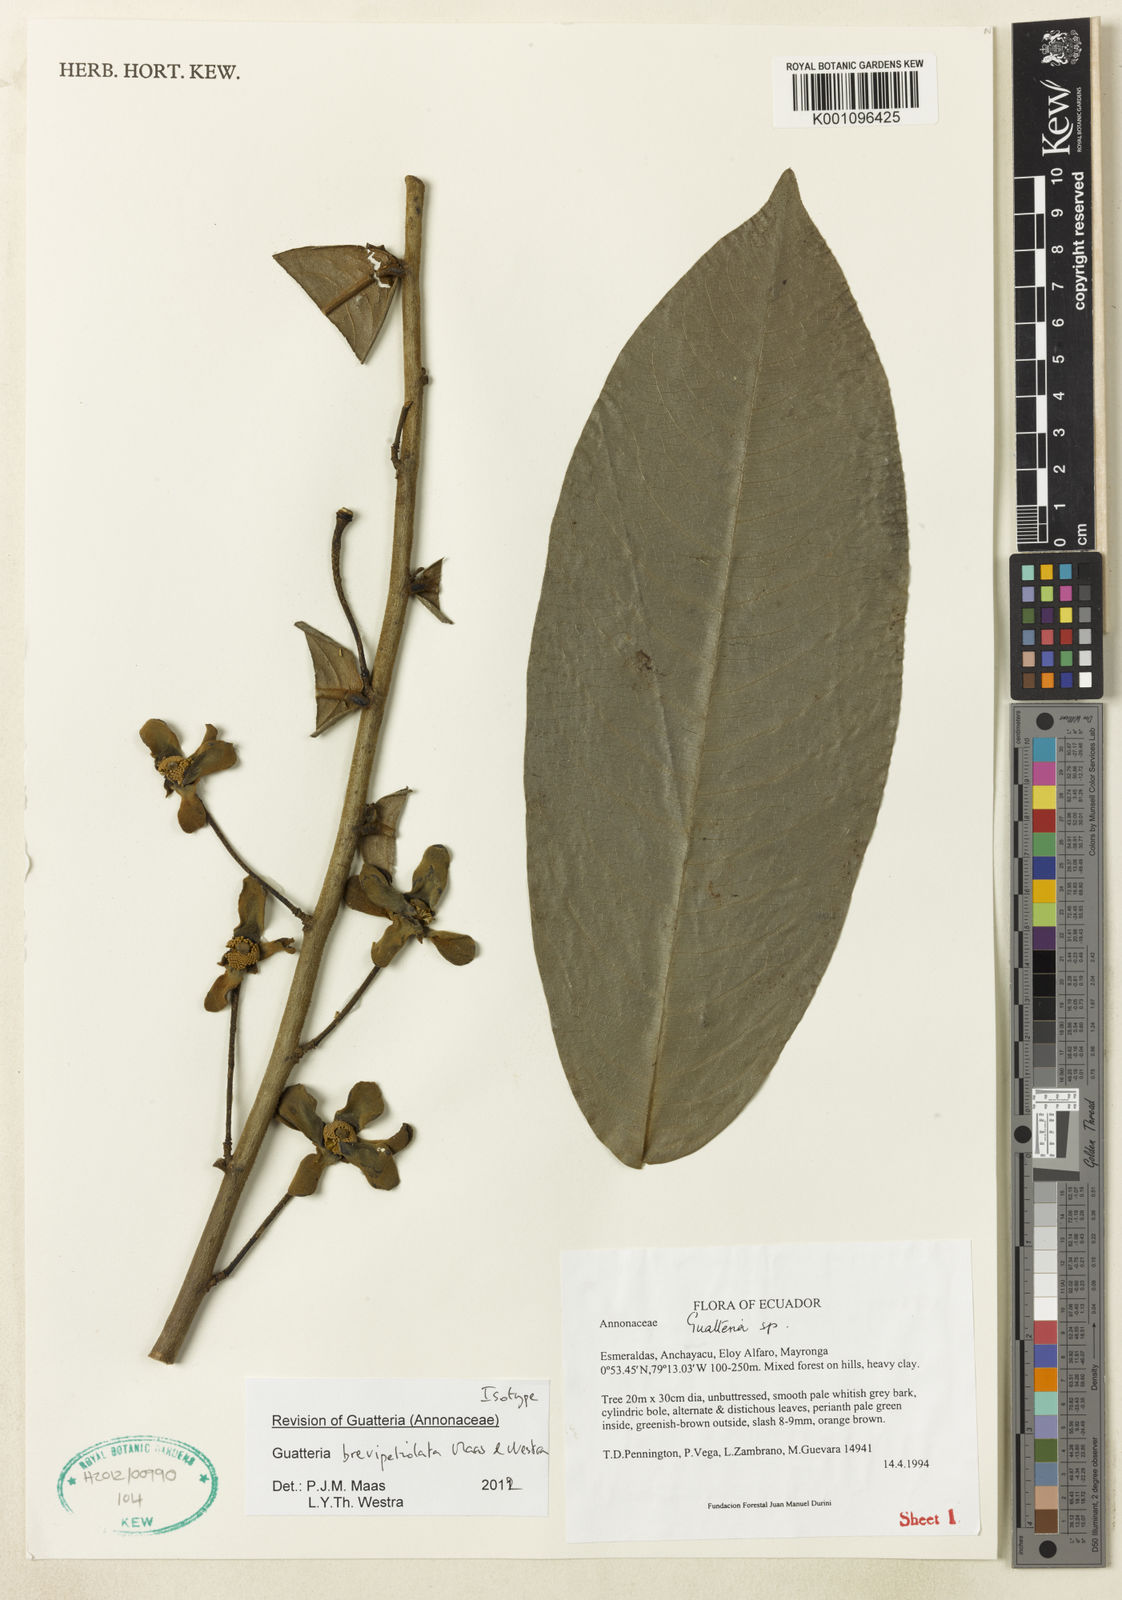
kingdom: Plantae
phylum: Tracheophyta
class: Magnoliopsida
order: Magnoliales
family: Annonaceae
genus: Guatteria
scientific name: Guatteria brevipetiolata
